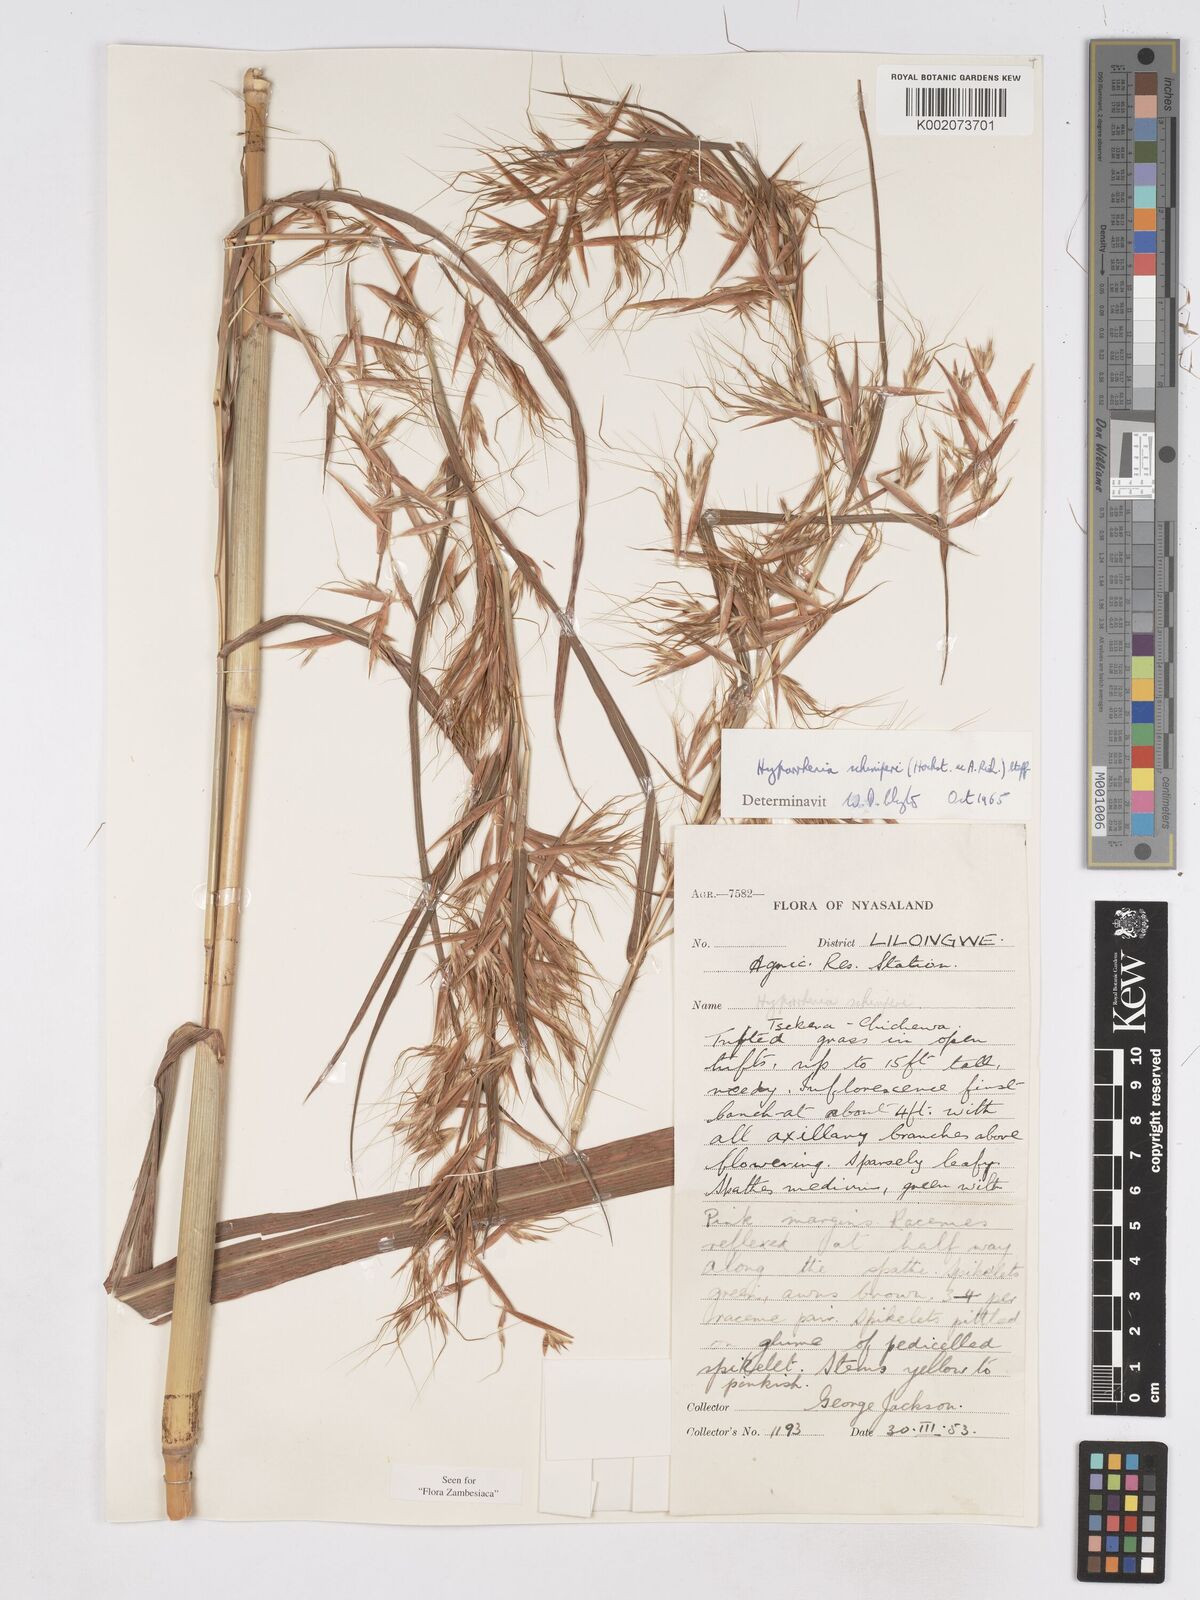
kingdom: Plantae
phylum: Tracheophyta
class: Liliopsida
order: Poales
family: Poaceae
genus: Hyparrhenia
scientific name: Hyparrhenia schimperi
